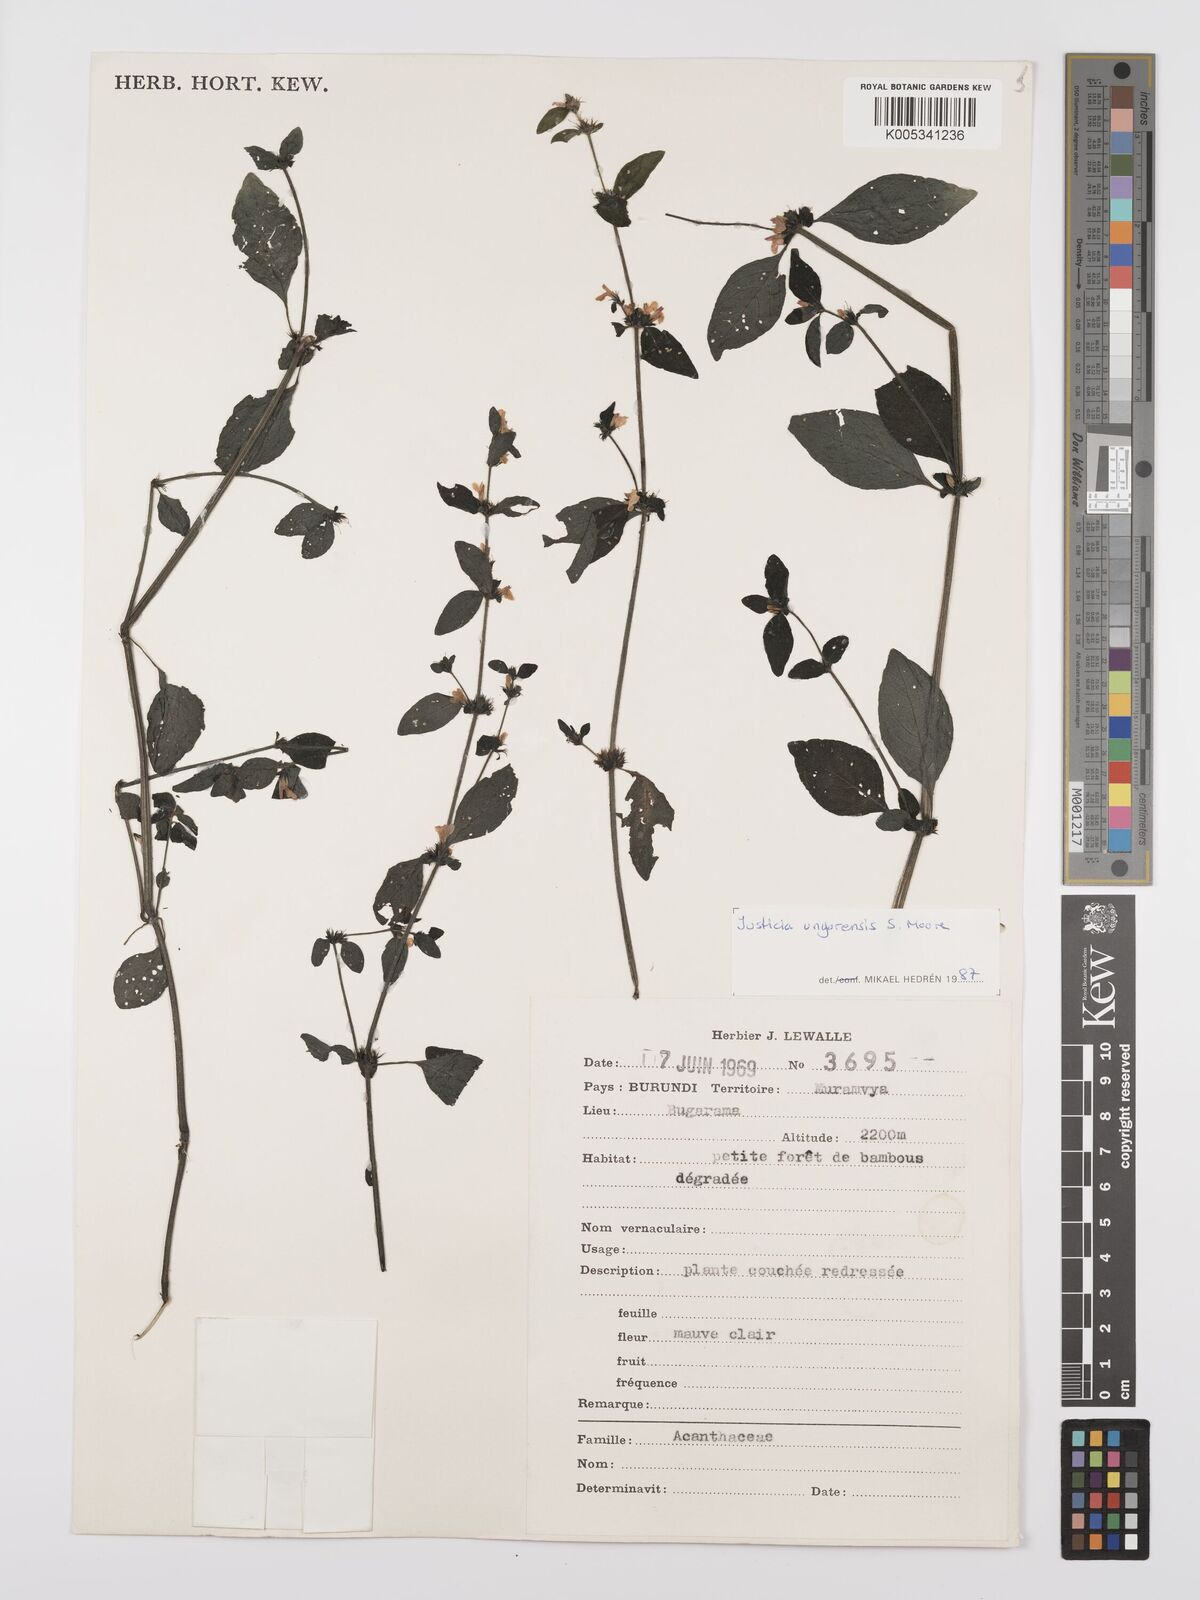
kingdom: Plantae
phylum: Tracheophyta
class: Magnoliopsida
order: Lamiales
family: Acanthaceae
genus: Justicia
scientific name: Justicia unyorensis
